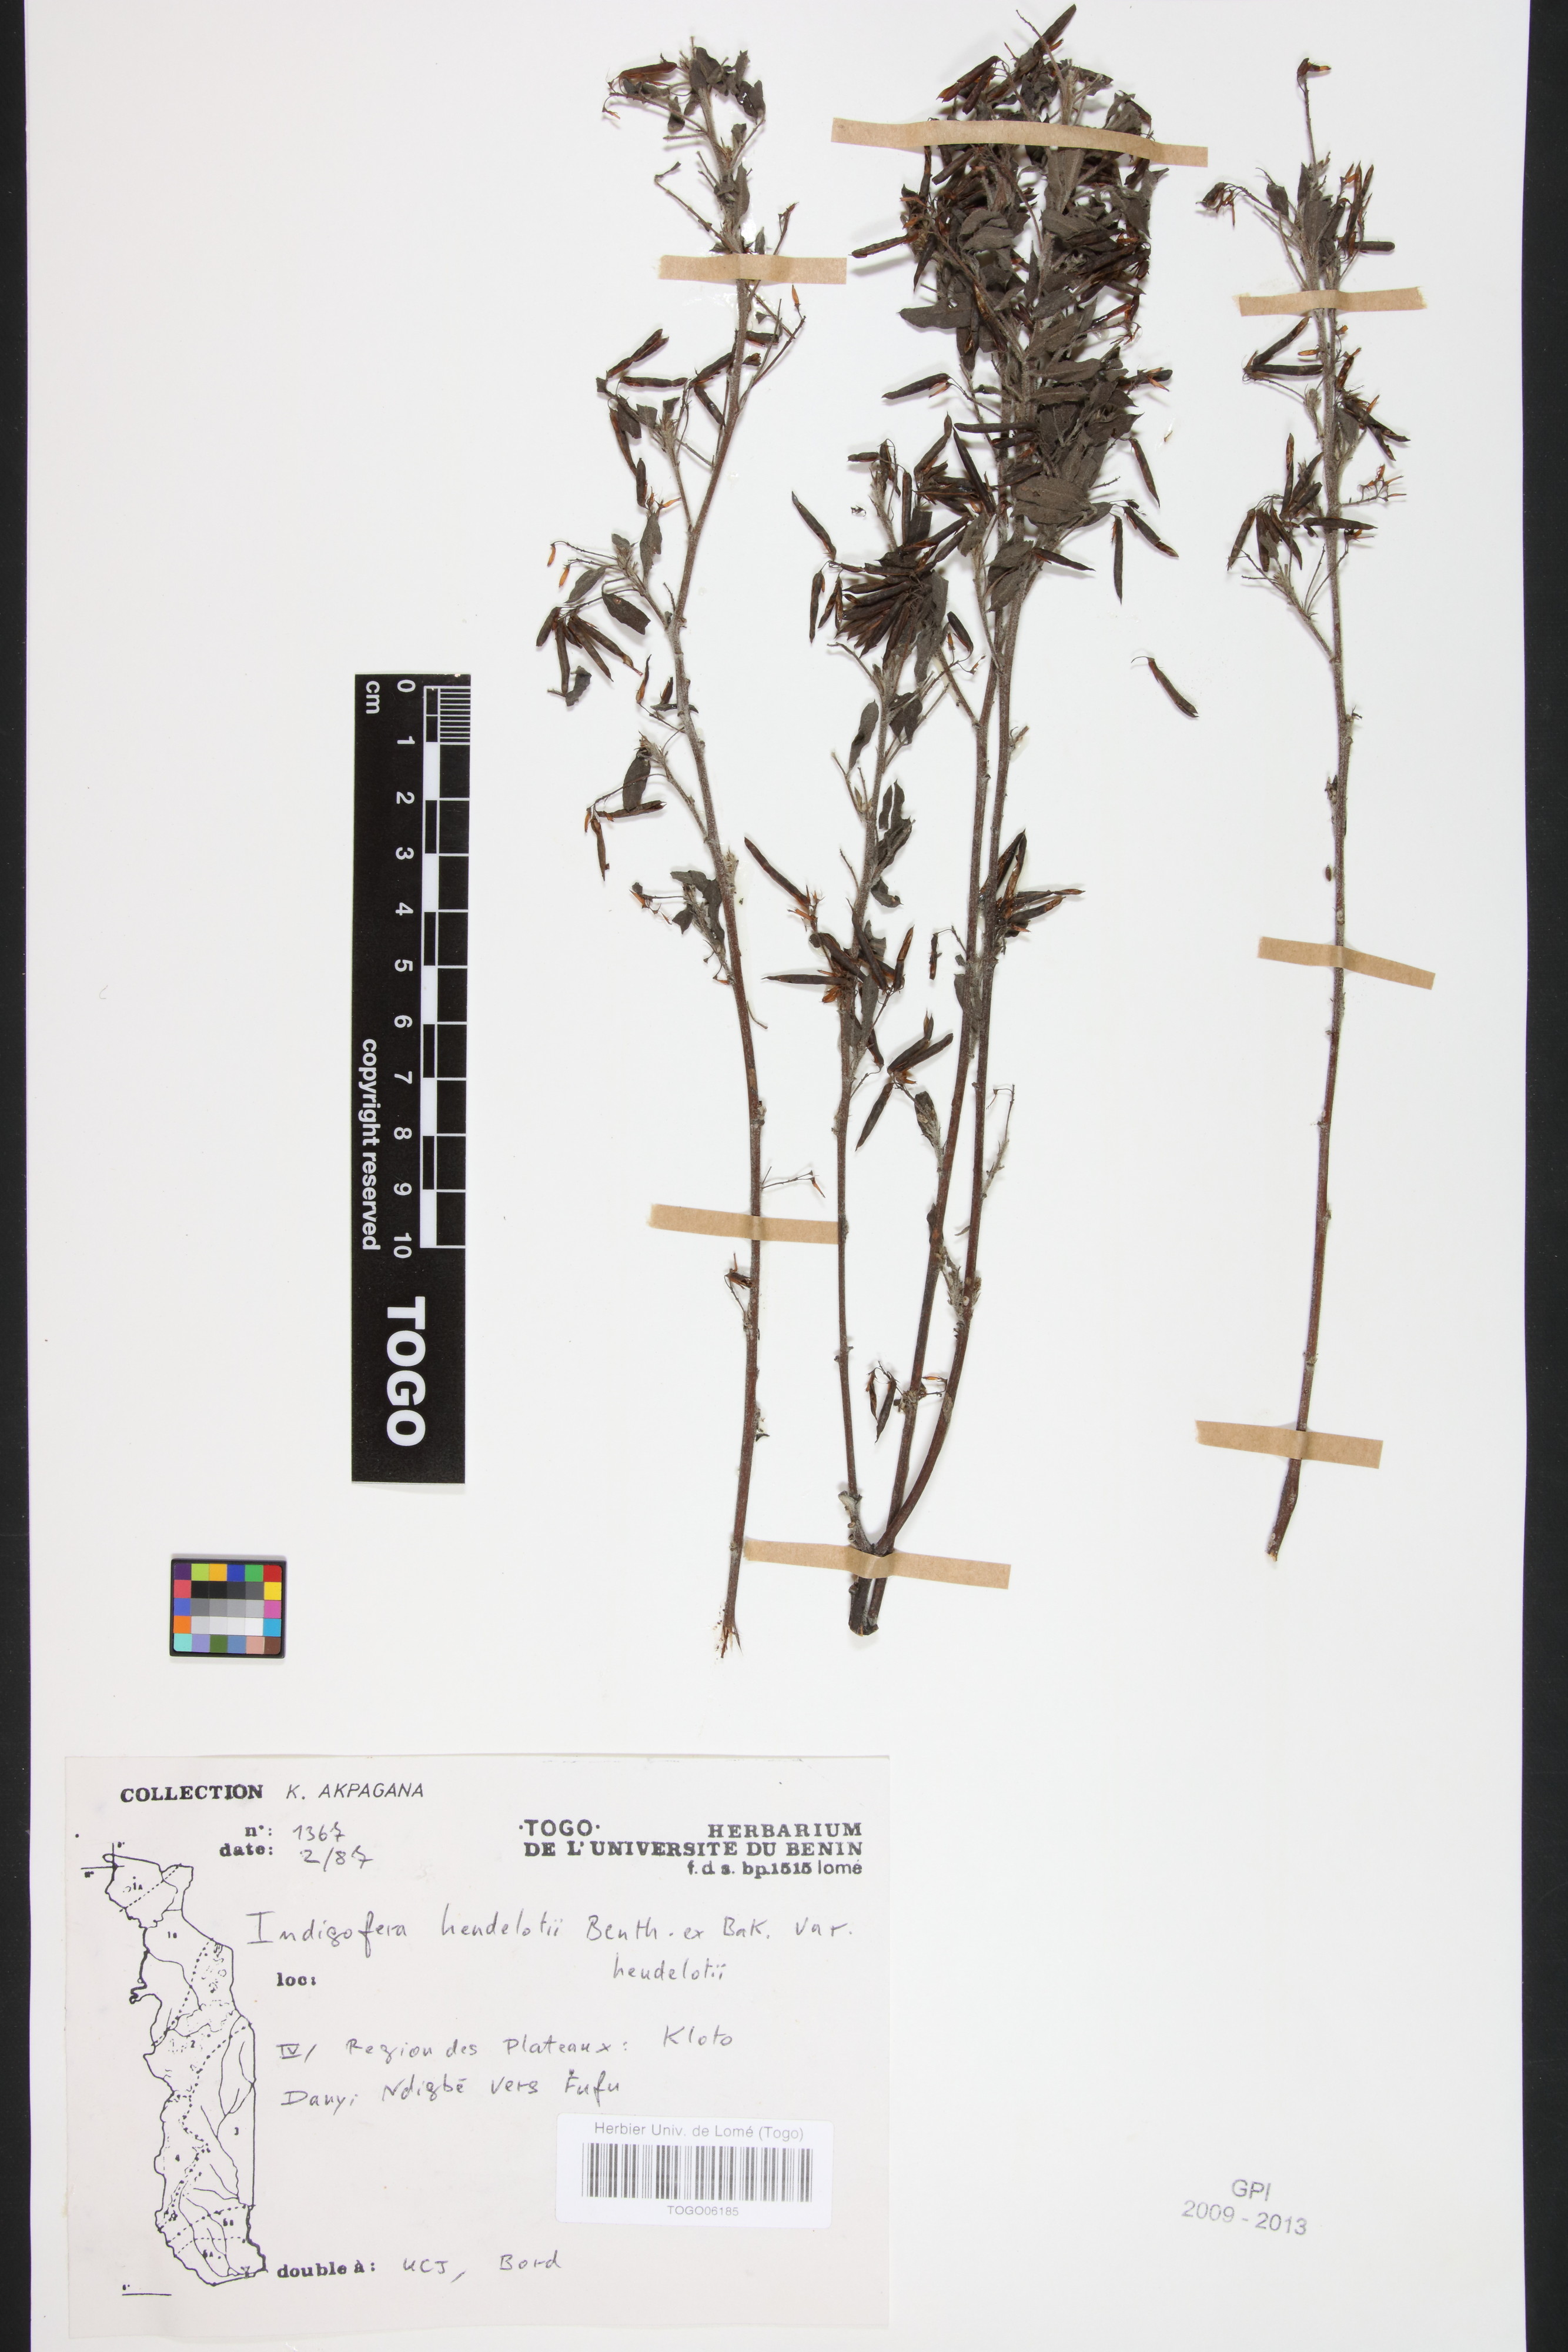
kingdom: Plantae
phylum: Tracheophyta
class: Magnoliopsida
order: Fabales
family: Fabaceae
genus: Indigofera
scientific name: Indigofera heudelotii
